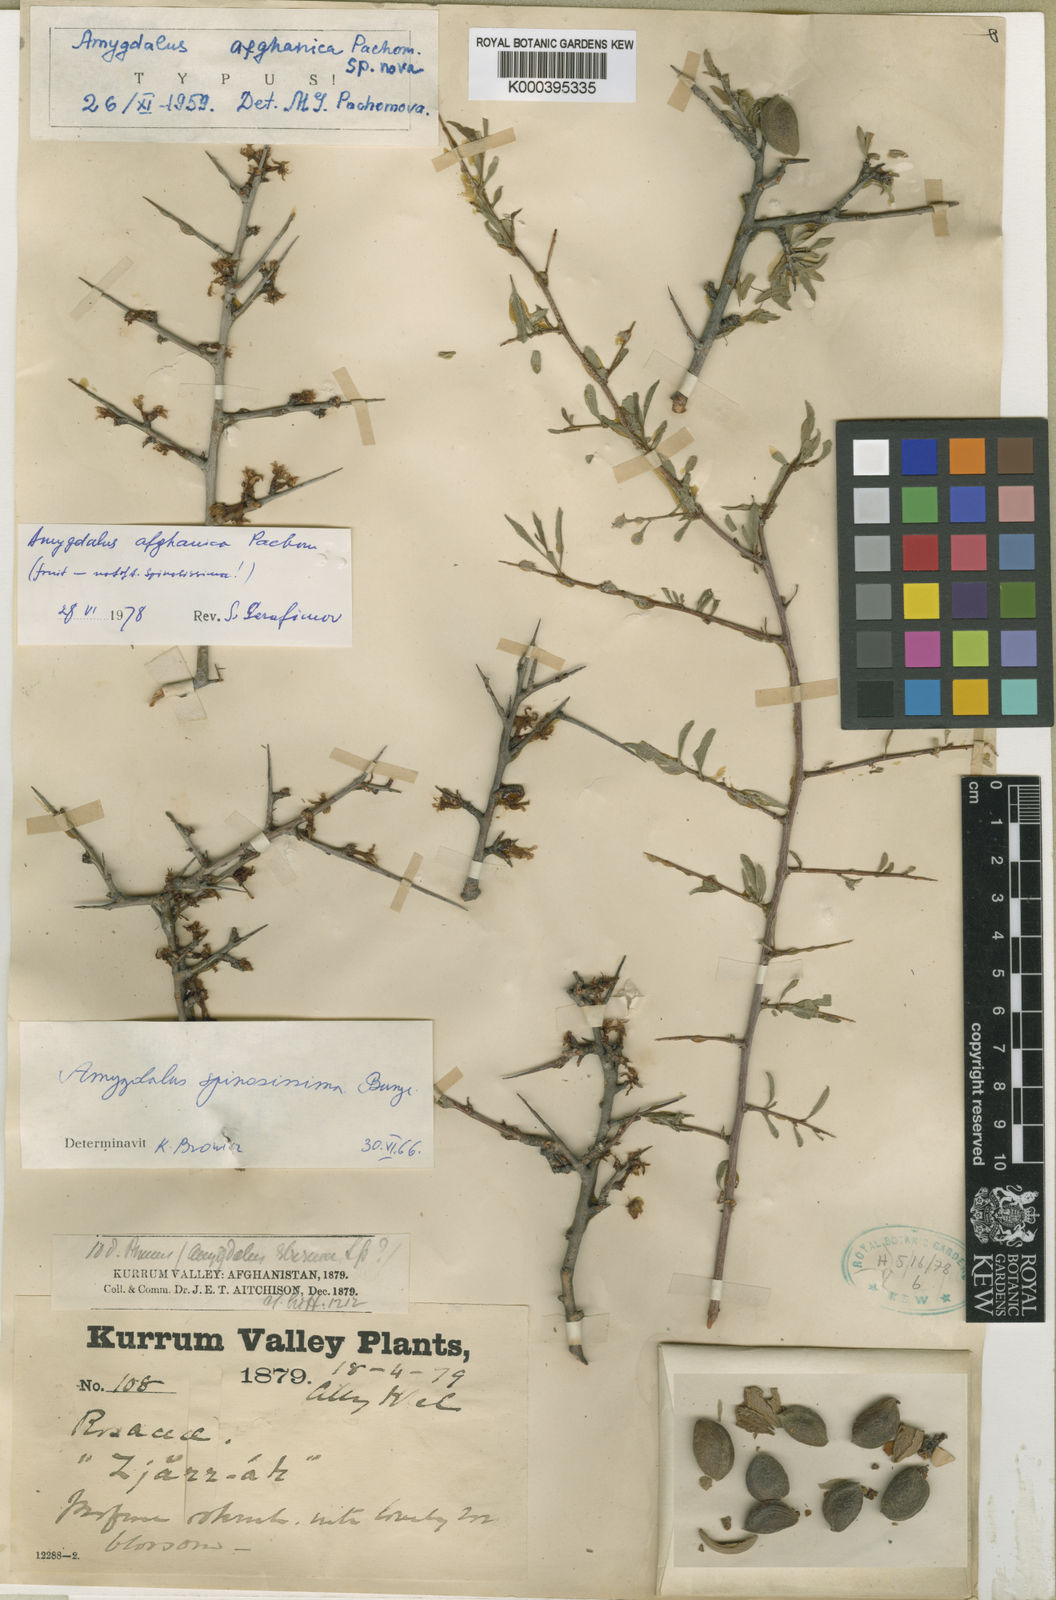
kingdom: Plantae
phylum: Tracheophyta
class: Magnoliopsida
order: Rosales
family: Rosaceae
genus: Prunus
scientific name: Prunus brahuica
